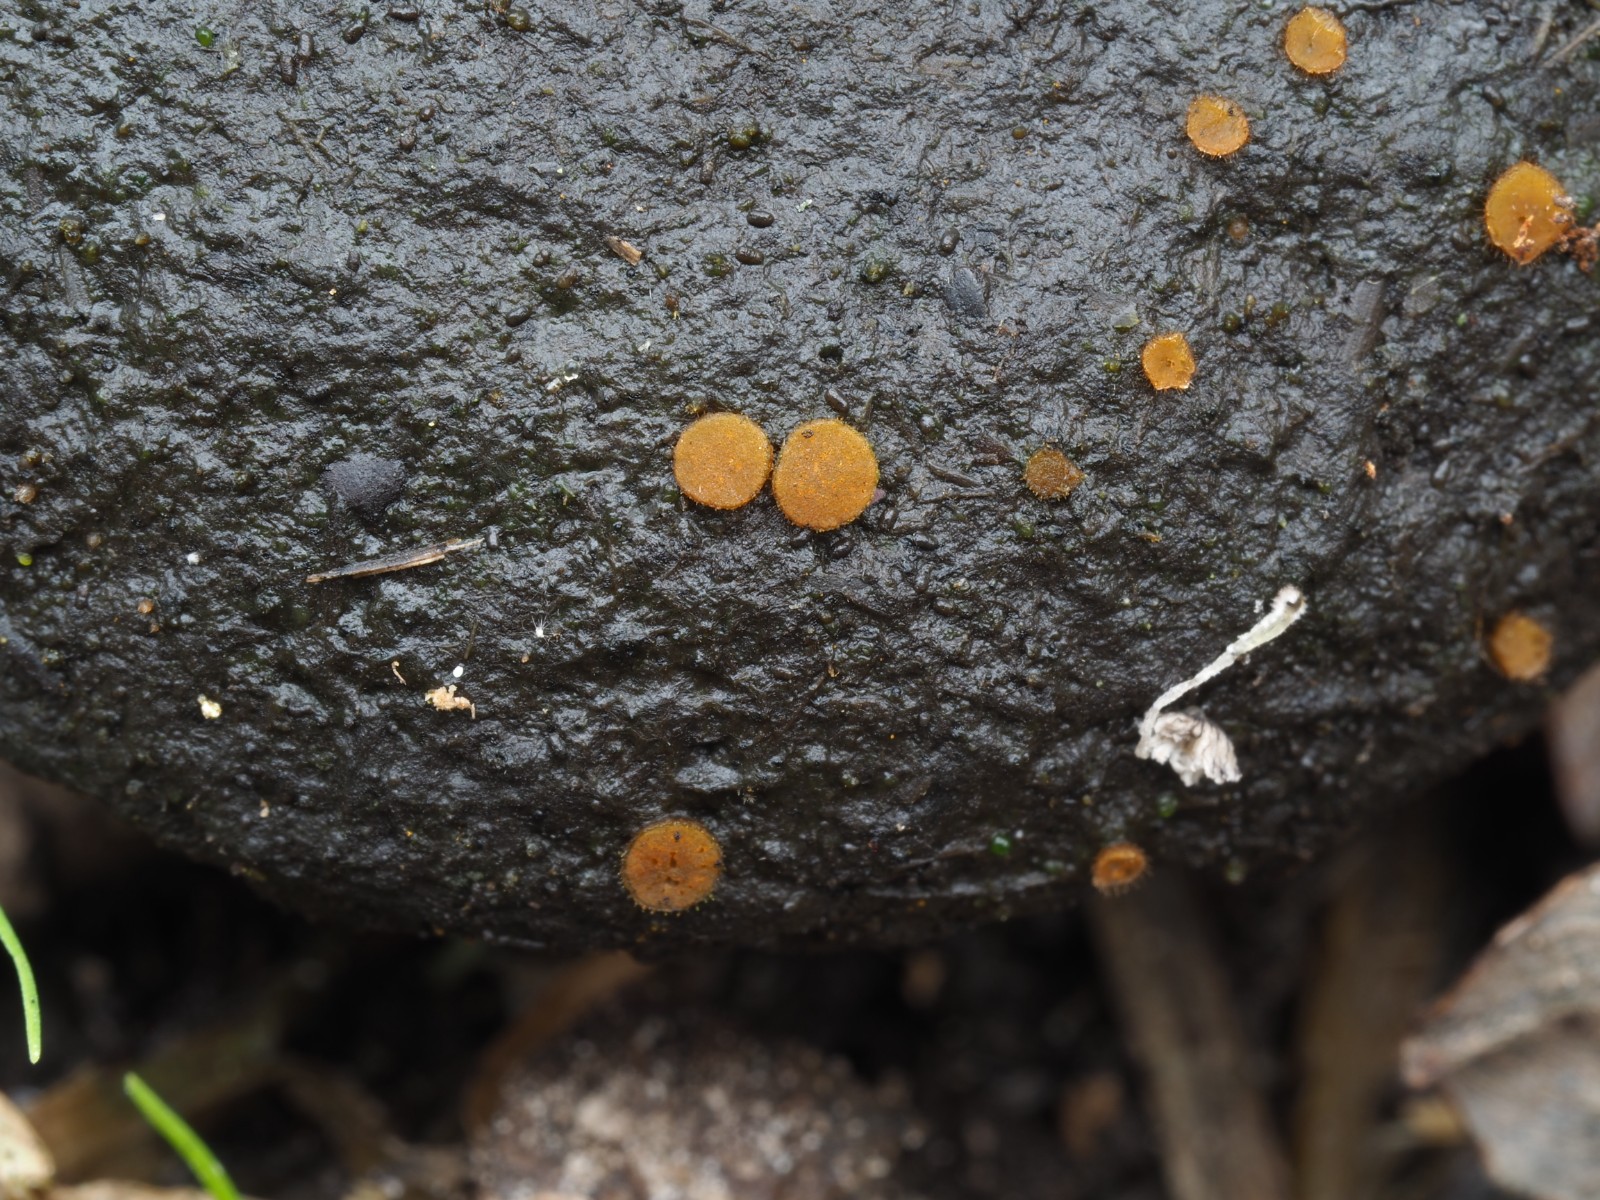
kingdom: Fungi
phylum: Ascomycota
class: Pezizomycetes
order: Pezizales
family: Pyronemataceae
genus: Cheilymenia
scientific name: Cheilymenia
